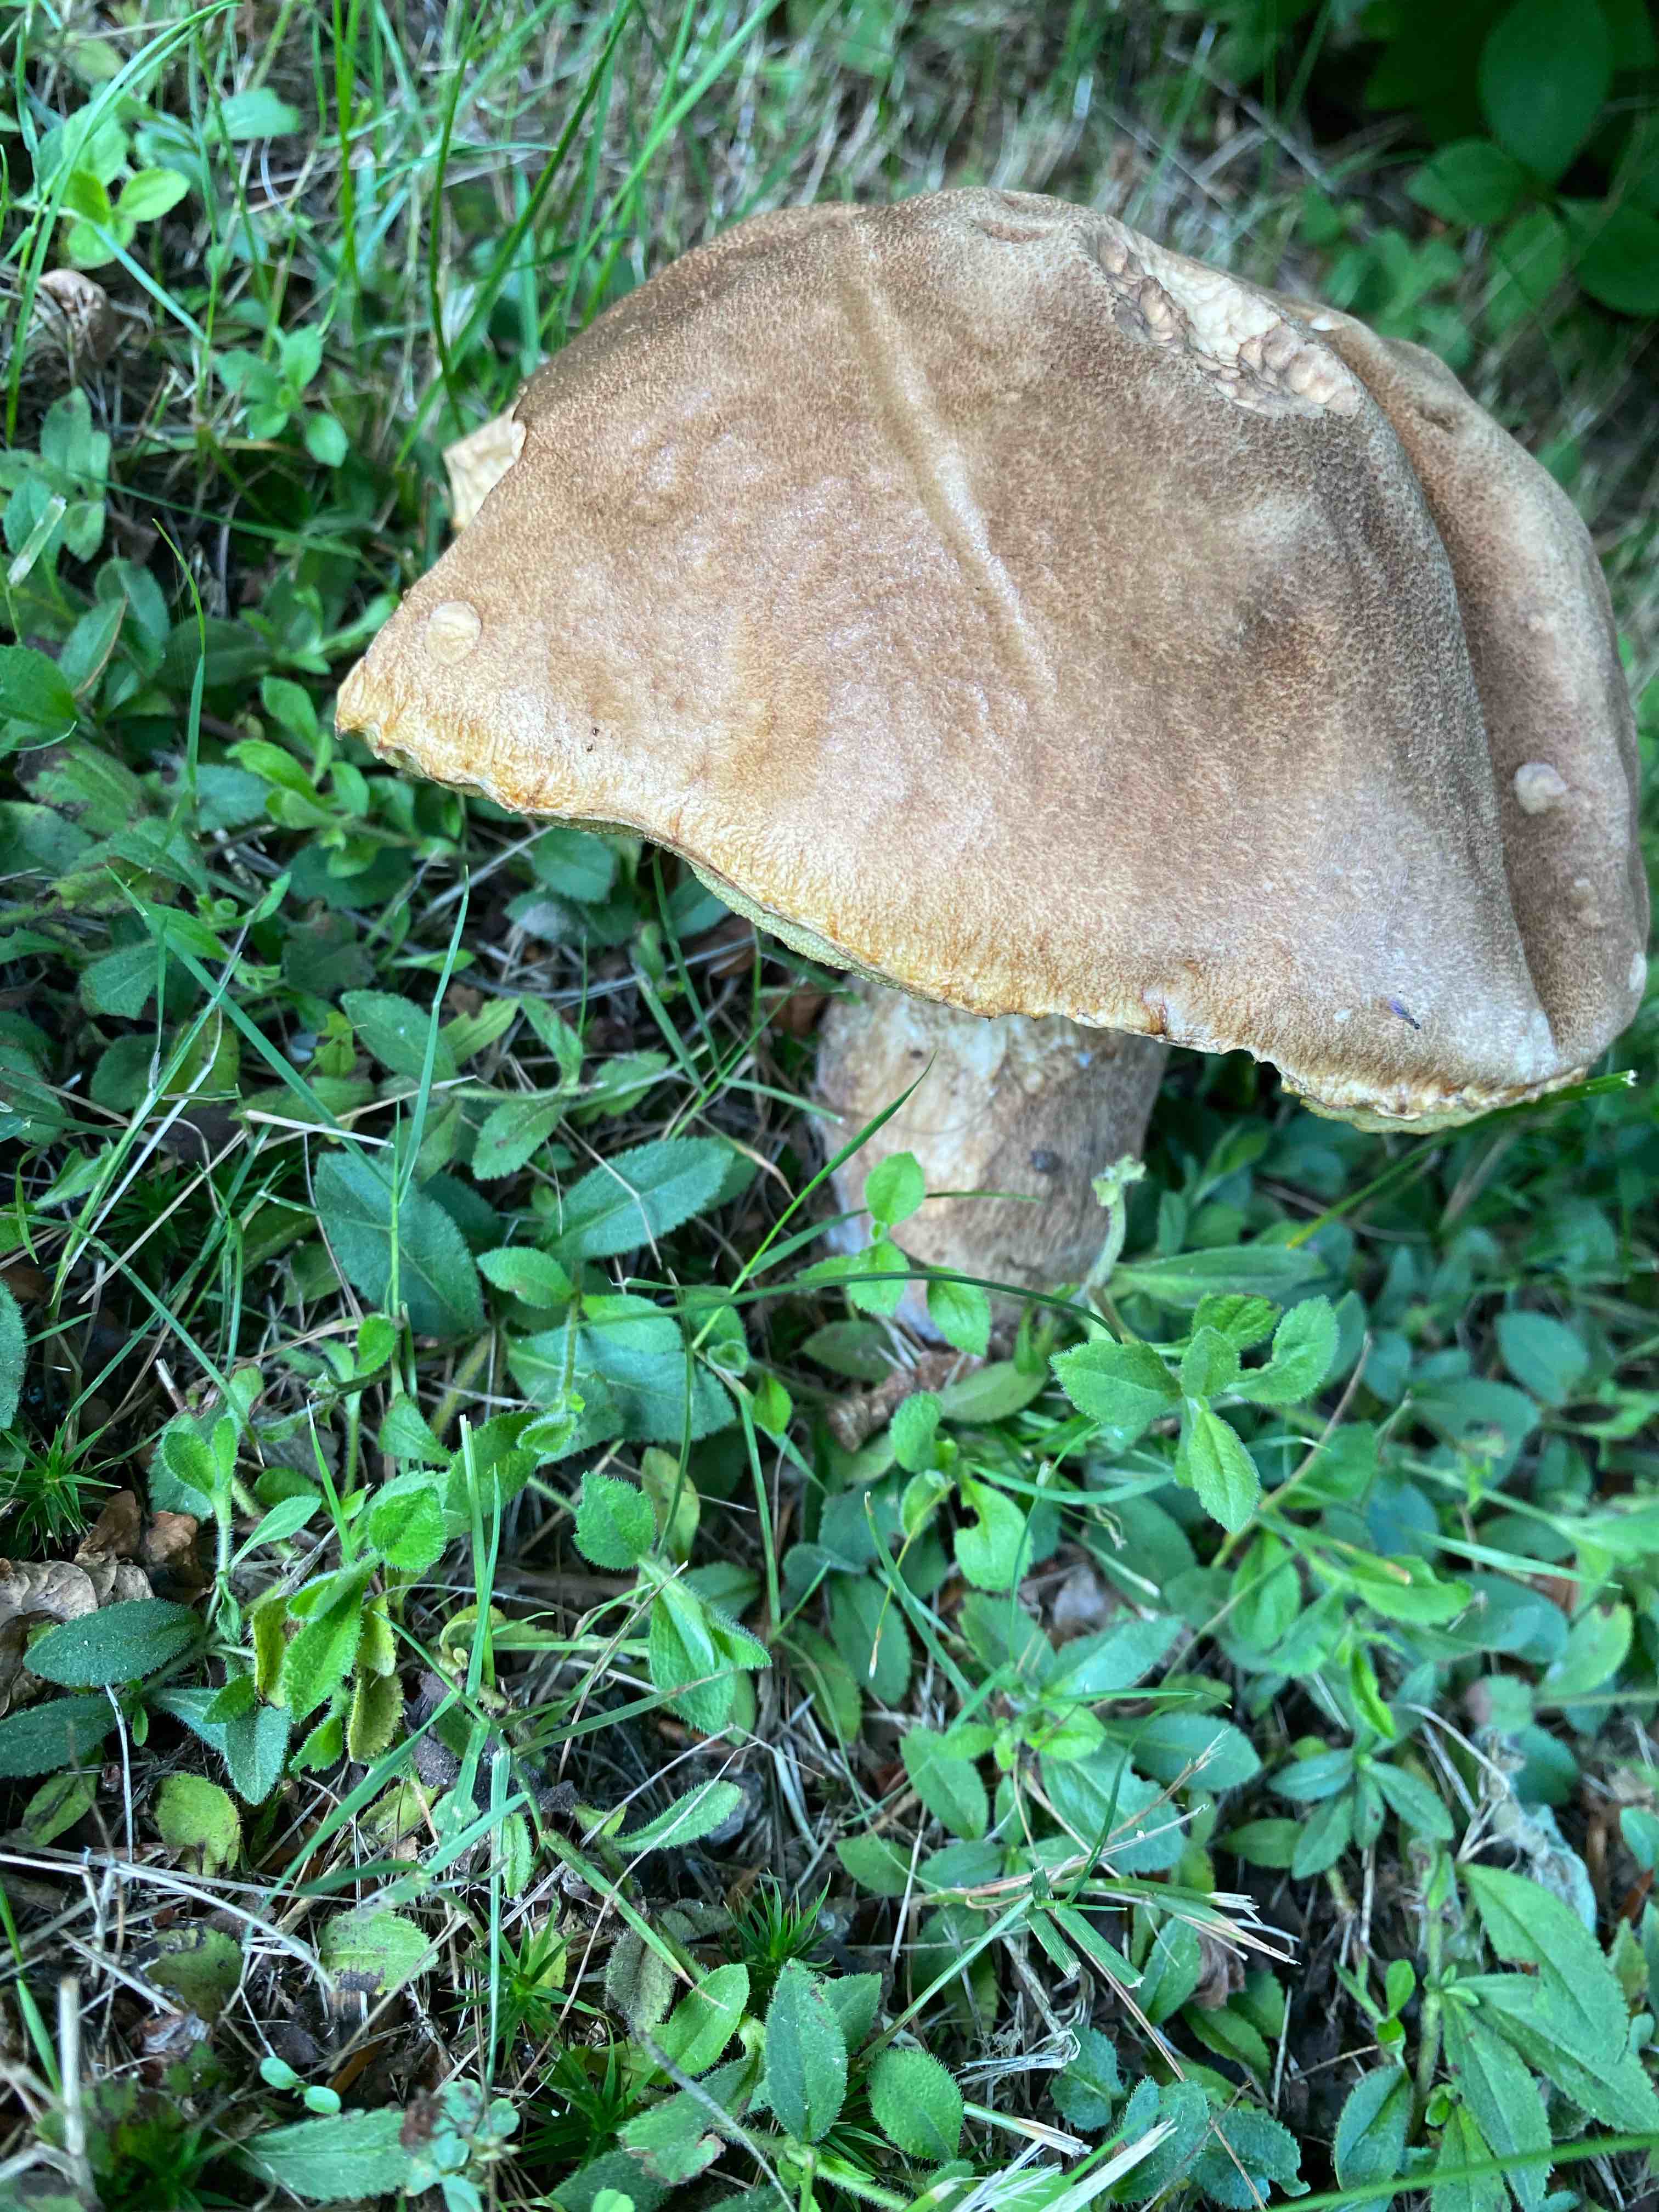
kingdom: Fungi
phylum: Basidiomycota
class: Agaricomycetes
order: Boletales
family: Boletaceae
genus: Boletus
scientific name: Boletus reticulatus
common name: sommer-rørhat
